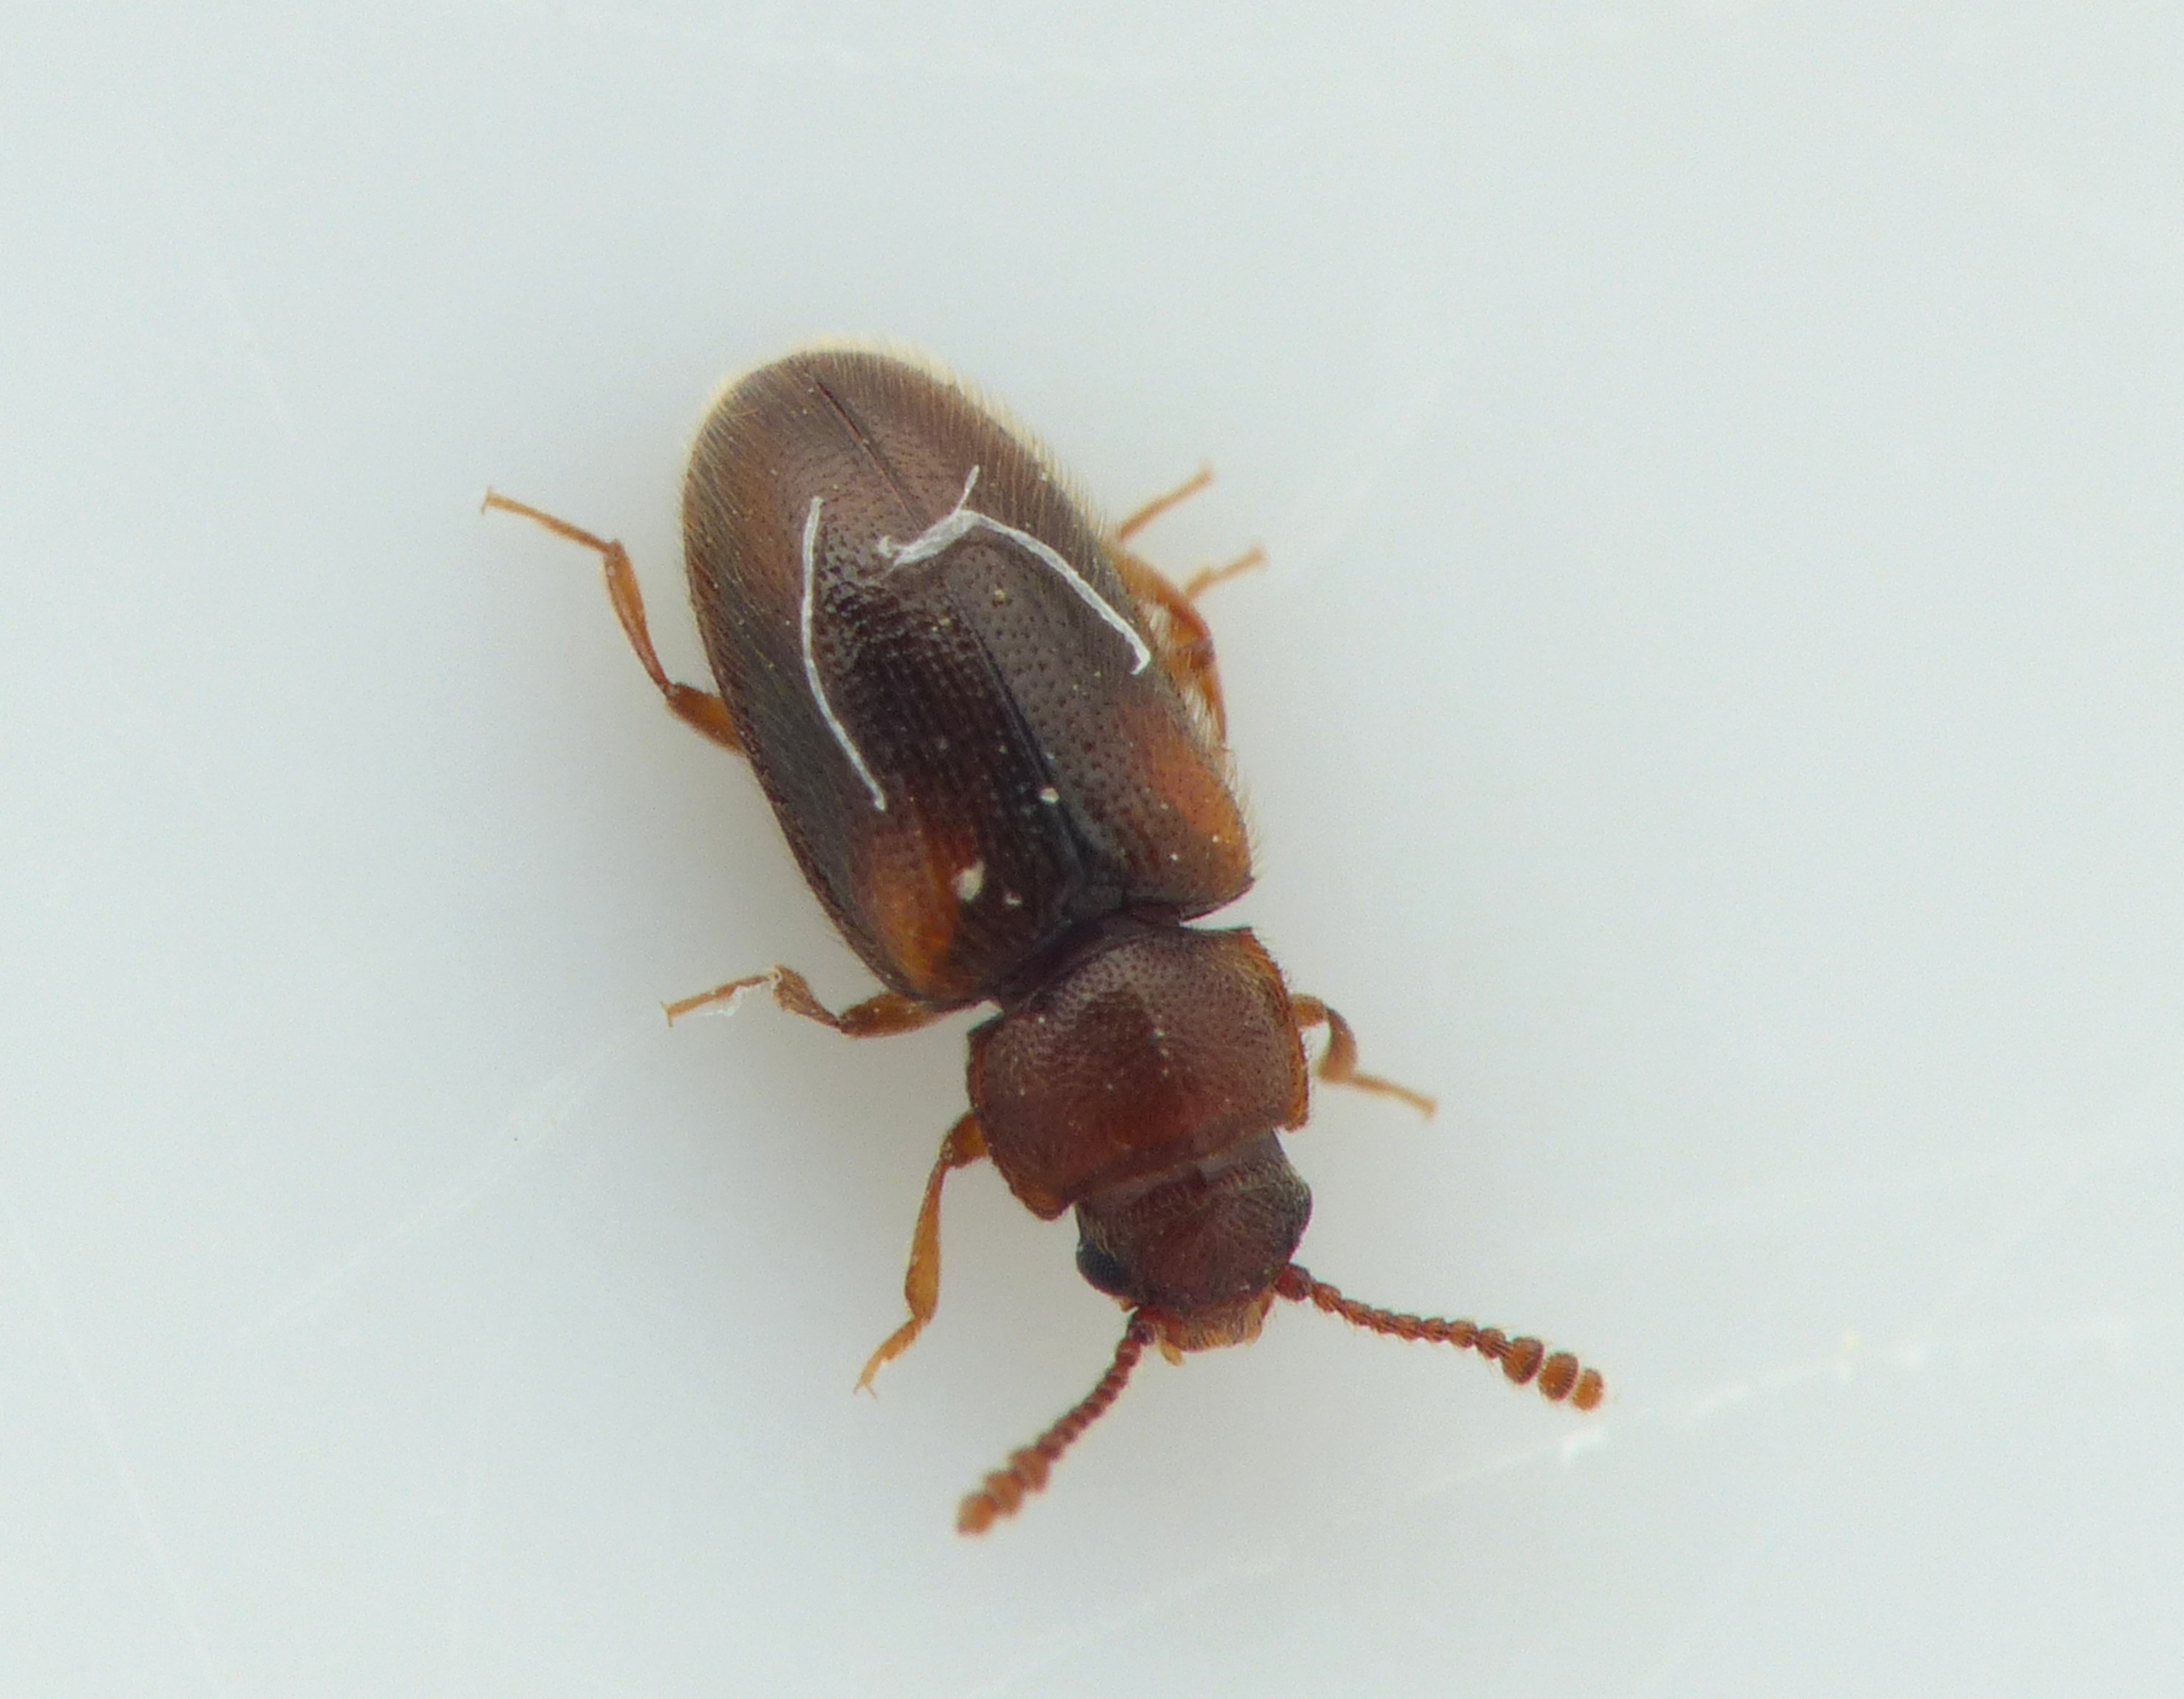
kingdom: Animalia
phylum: Arthropoda
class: Insecta
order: Coleoptera
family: Erotylidae
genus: Cryptophilus
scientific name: Cryptophilus obliteratus
